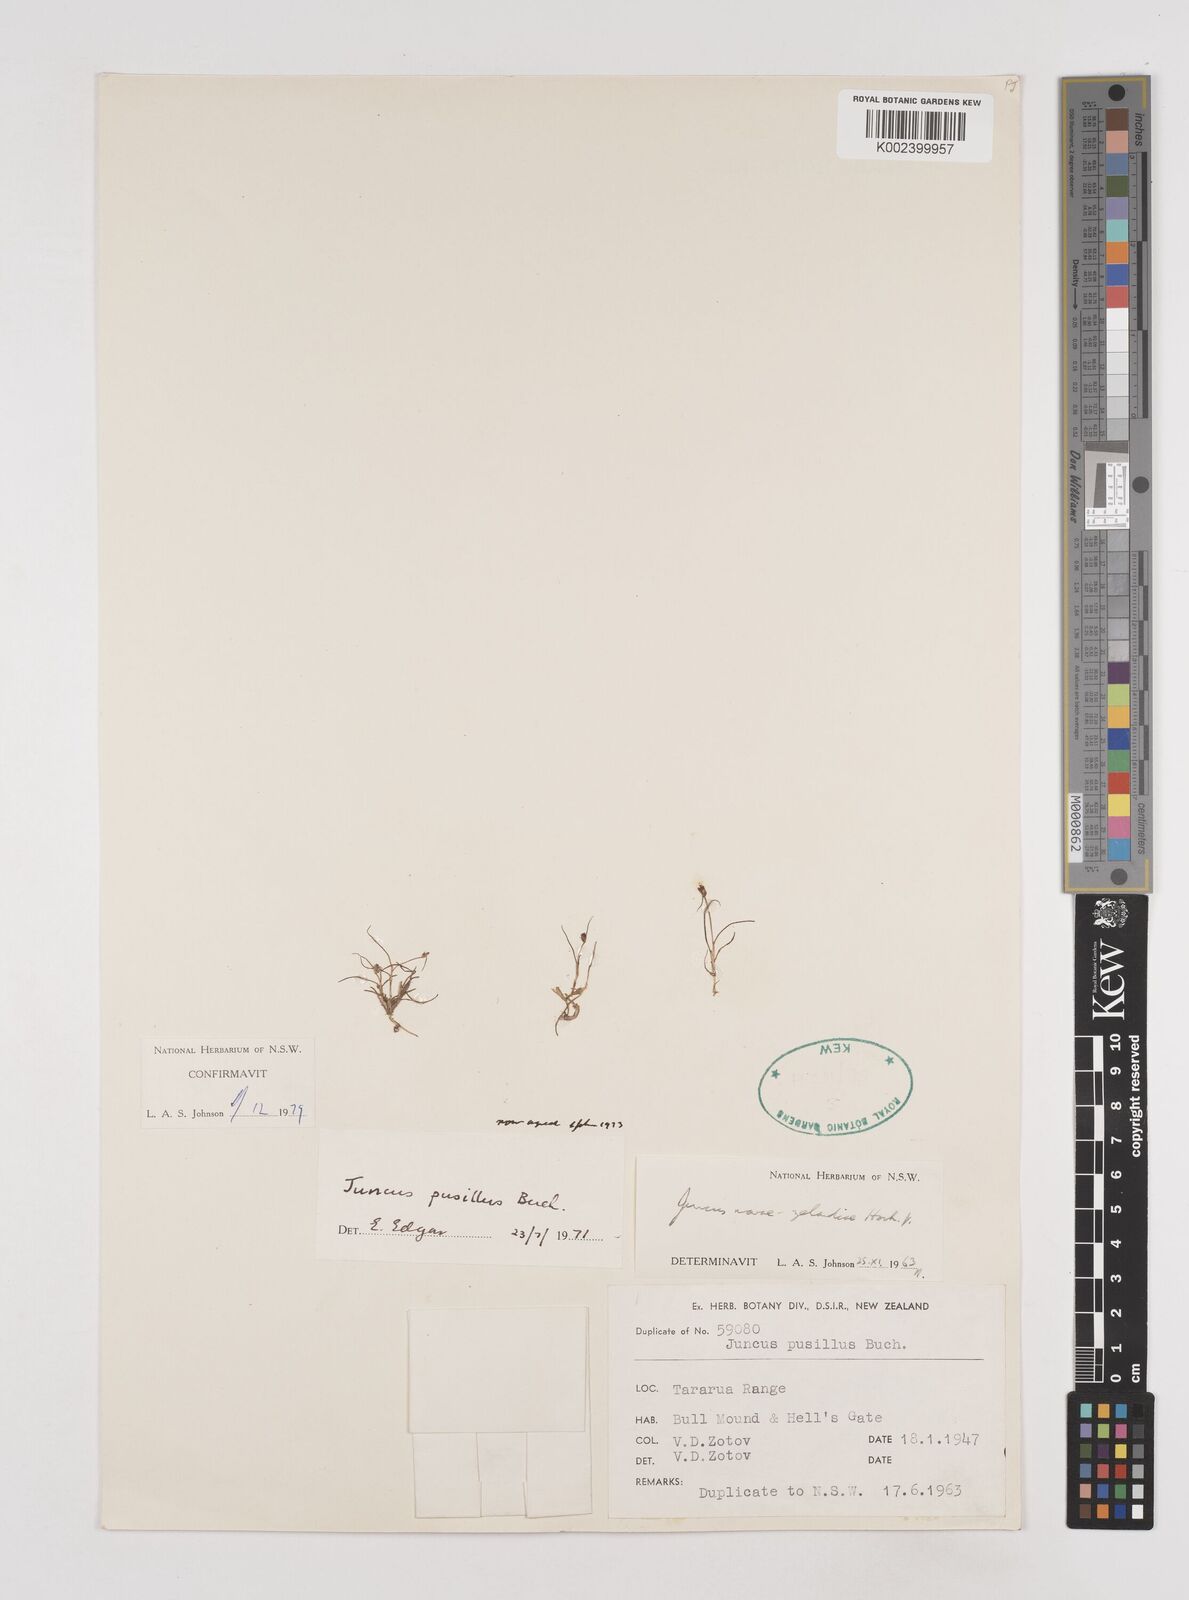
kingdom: Plantae
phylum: Tracheophyta
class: Liliopsida
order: Poales
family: Juncaceae
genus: Juncus
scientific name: Juncus pusillus
